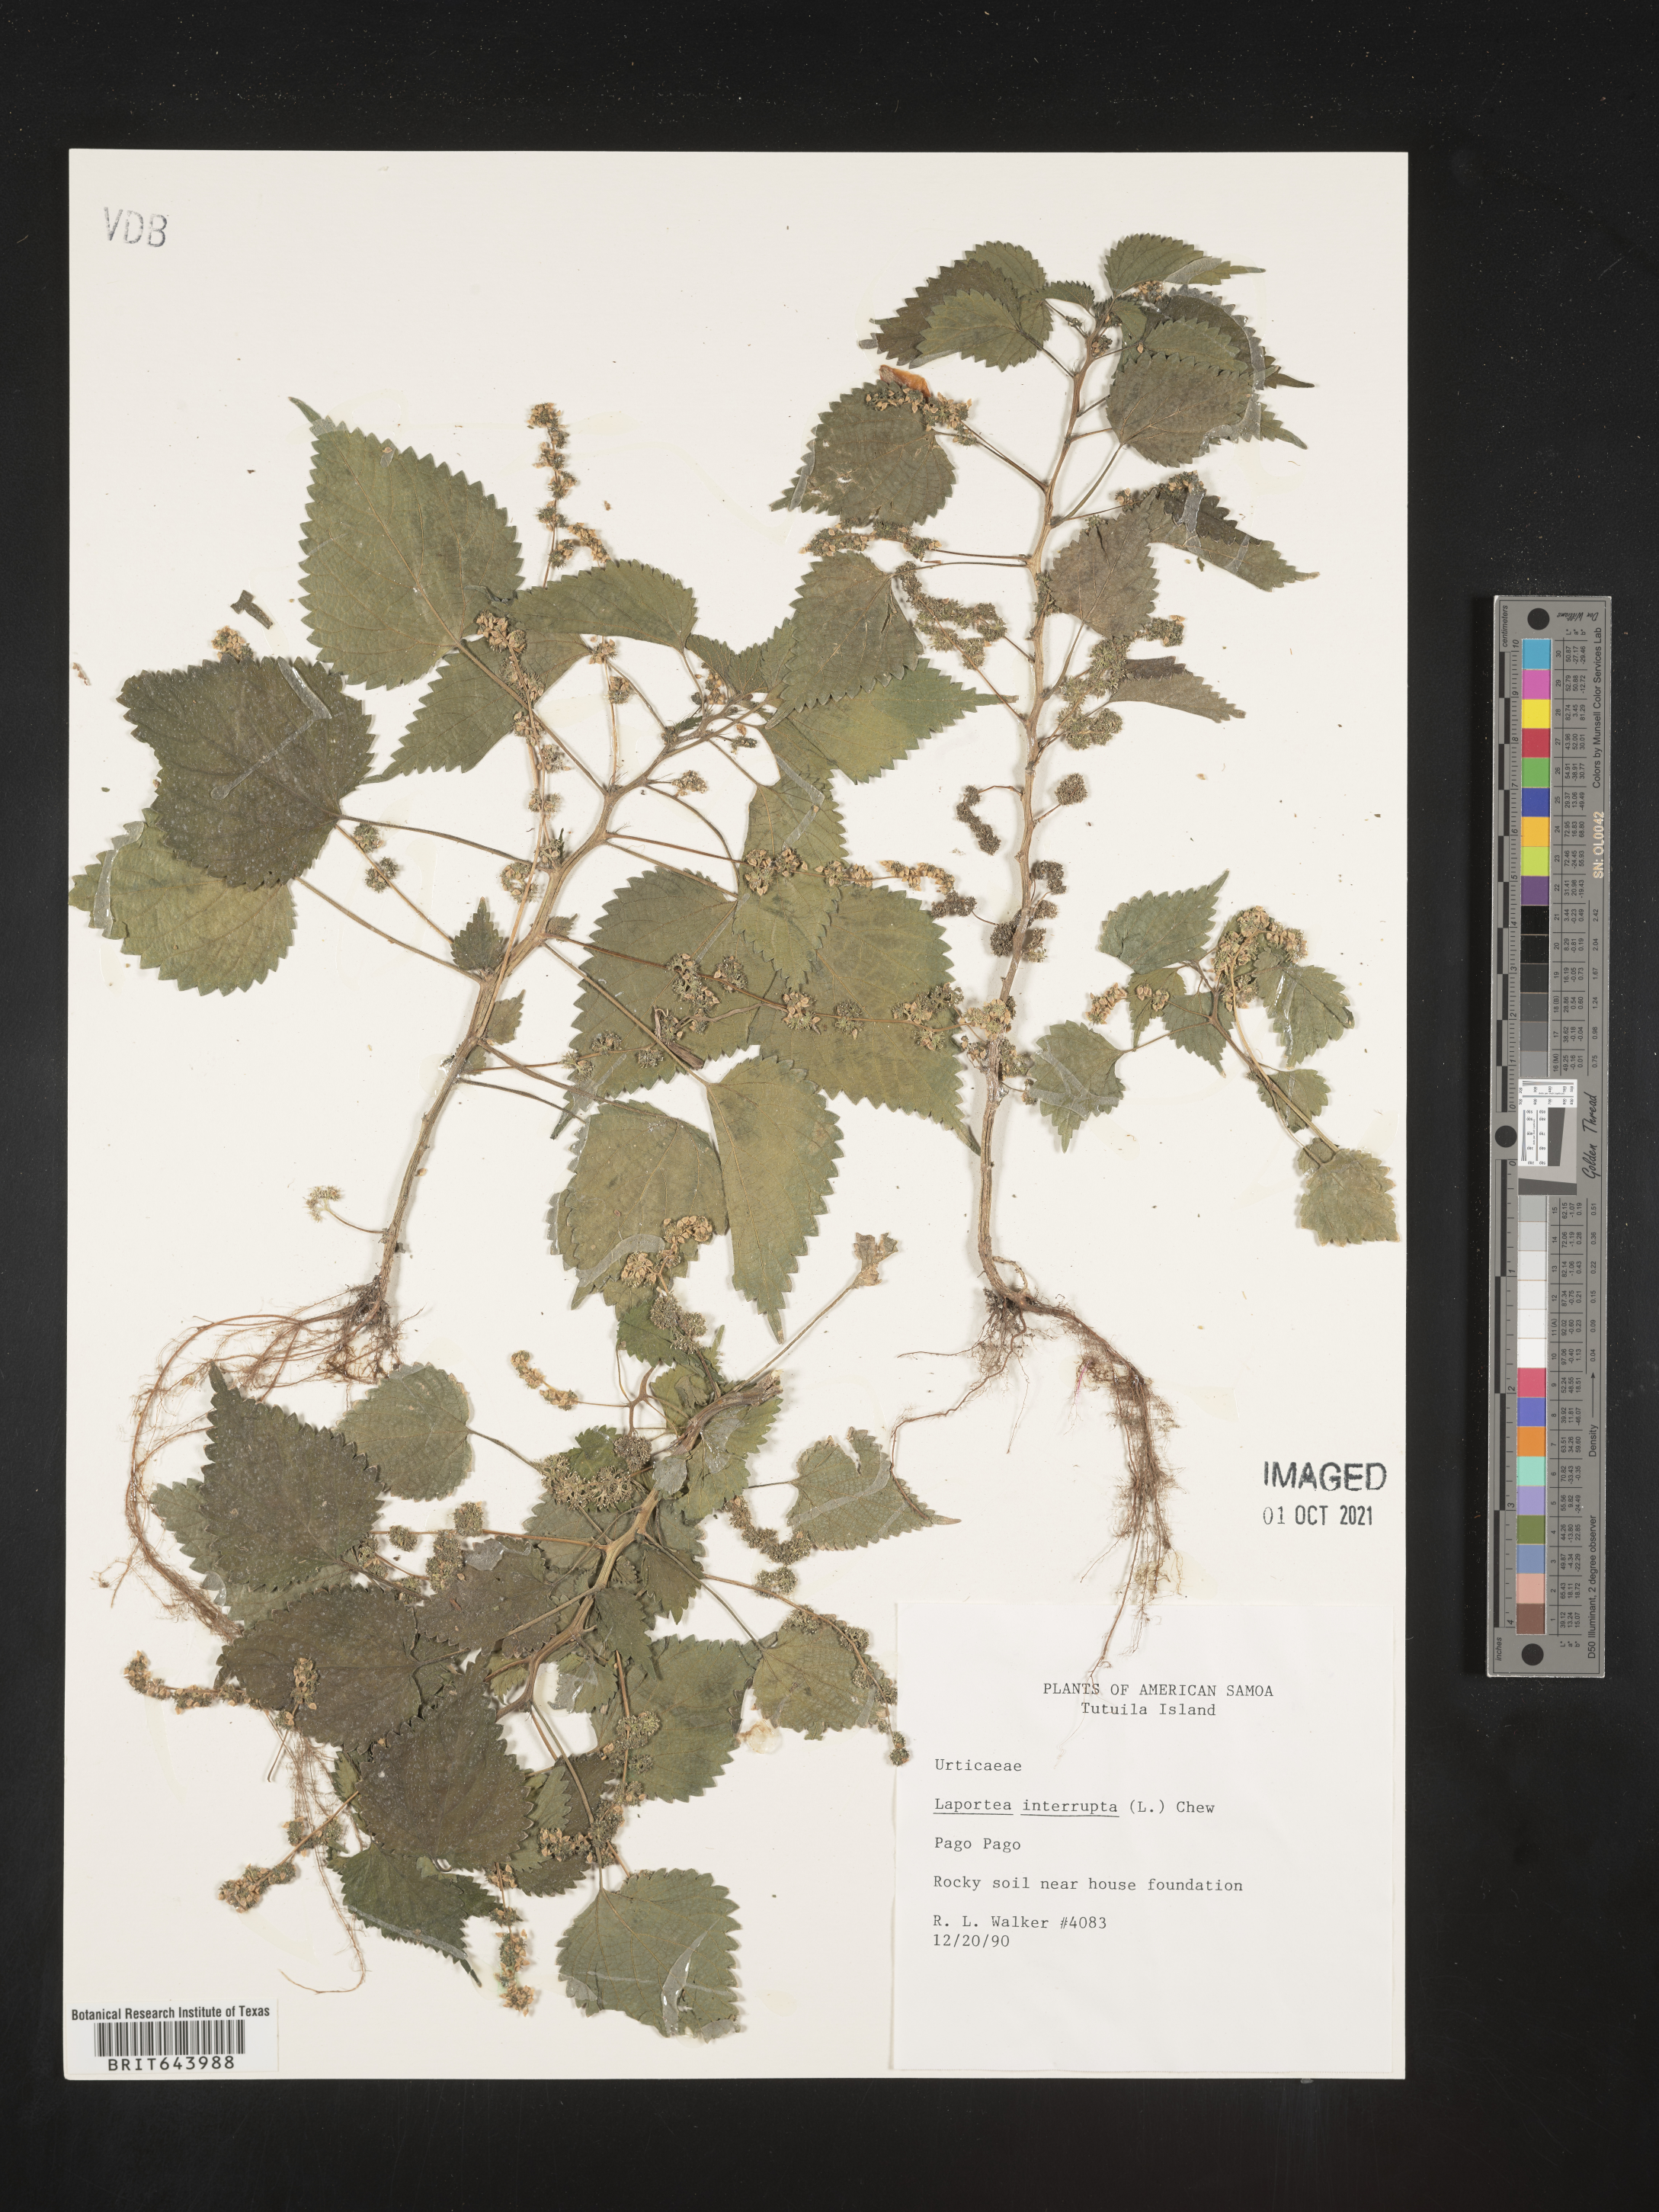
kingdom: Plantae
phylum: Tracheophyta
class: Magnoliopsida
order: Rosales
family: Urticaceae
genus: Laportea
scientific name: Laportea
